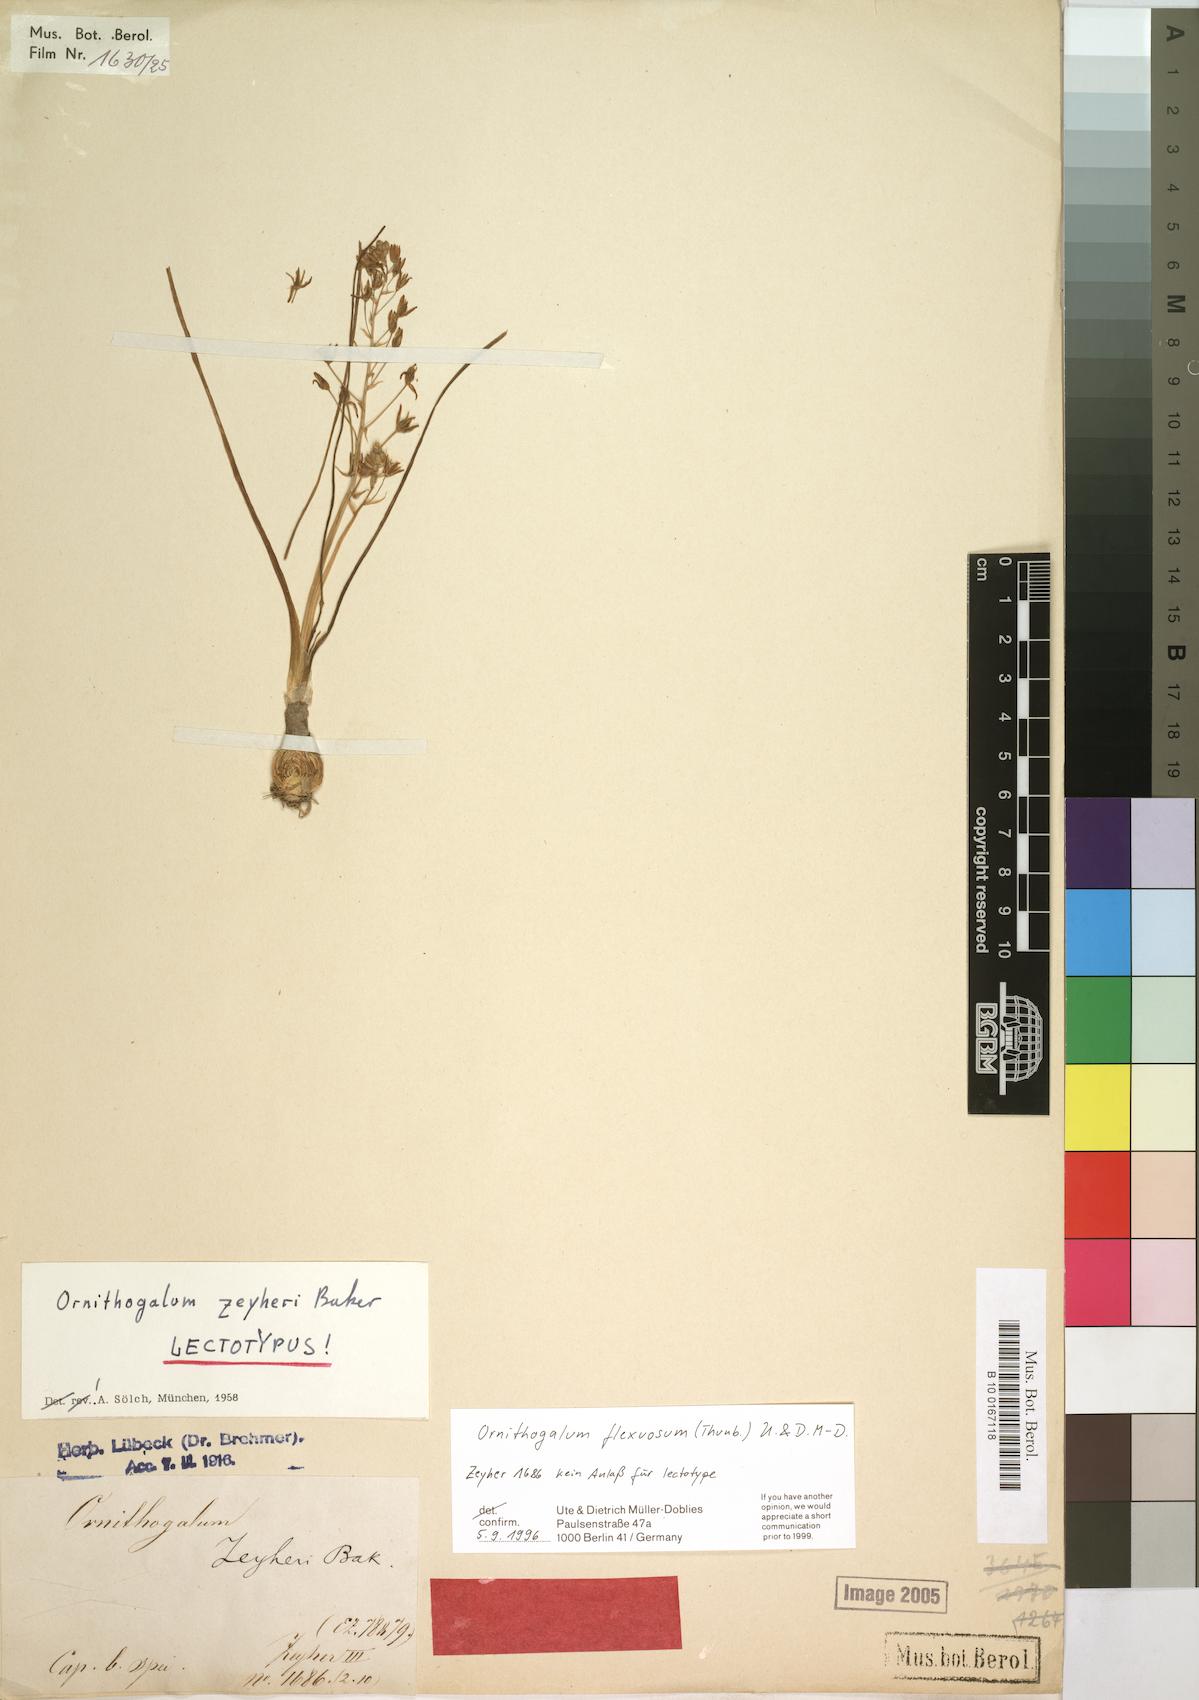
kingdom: Plantae
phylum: Tracheophyta
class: Liliopsida
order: Asparagales
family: Asparagaceae
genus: Ornithogalum
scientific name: Ornithogalum flexuosum
